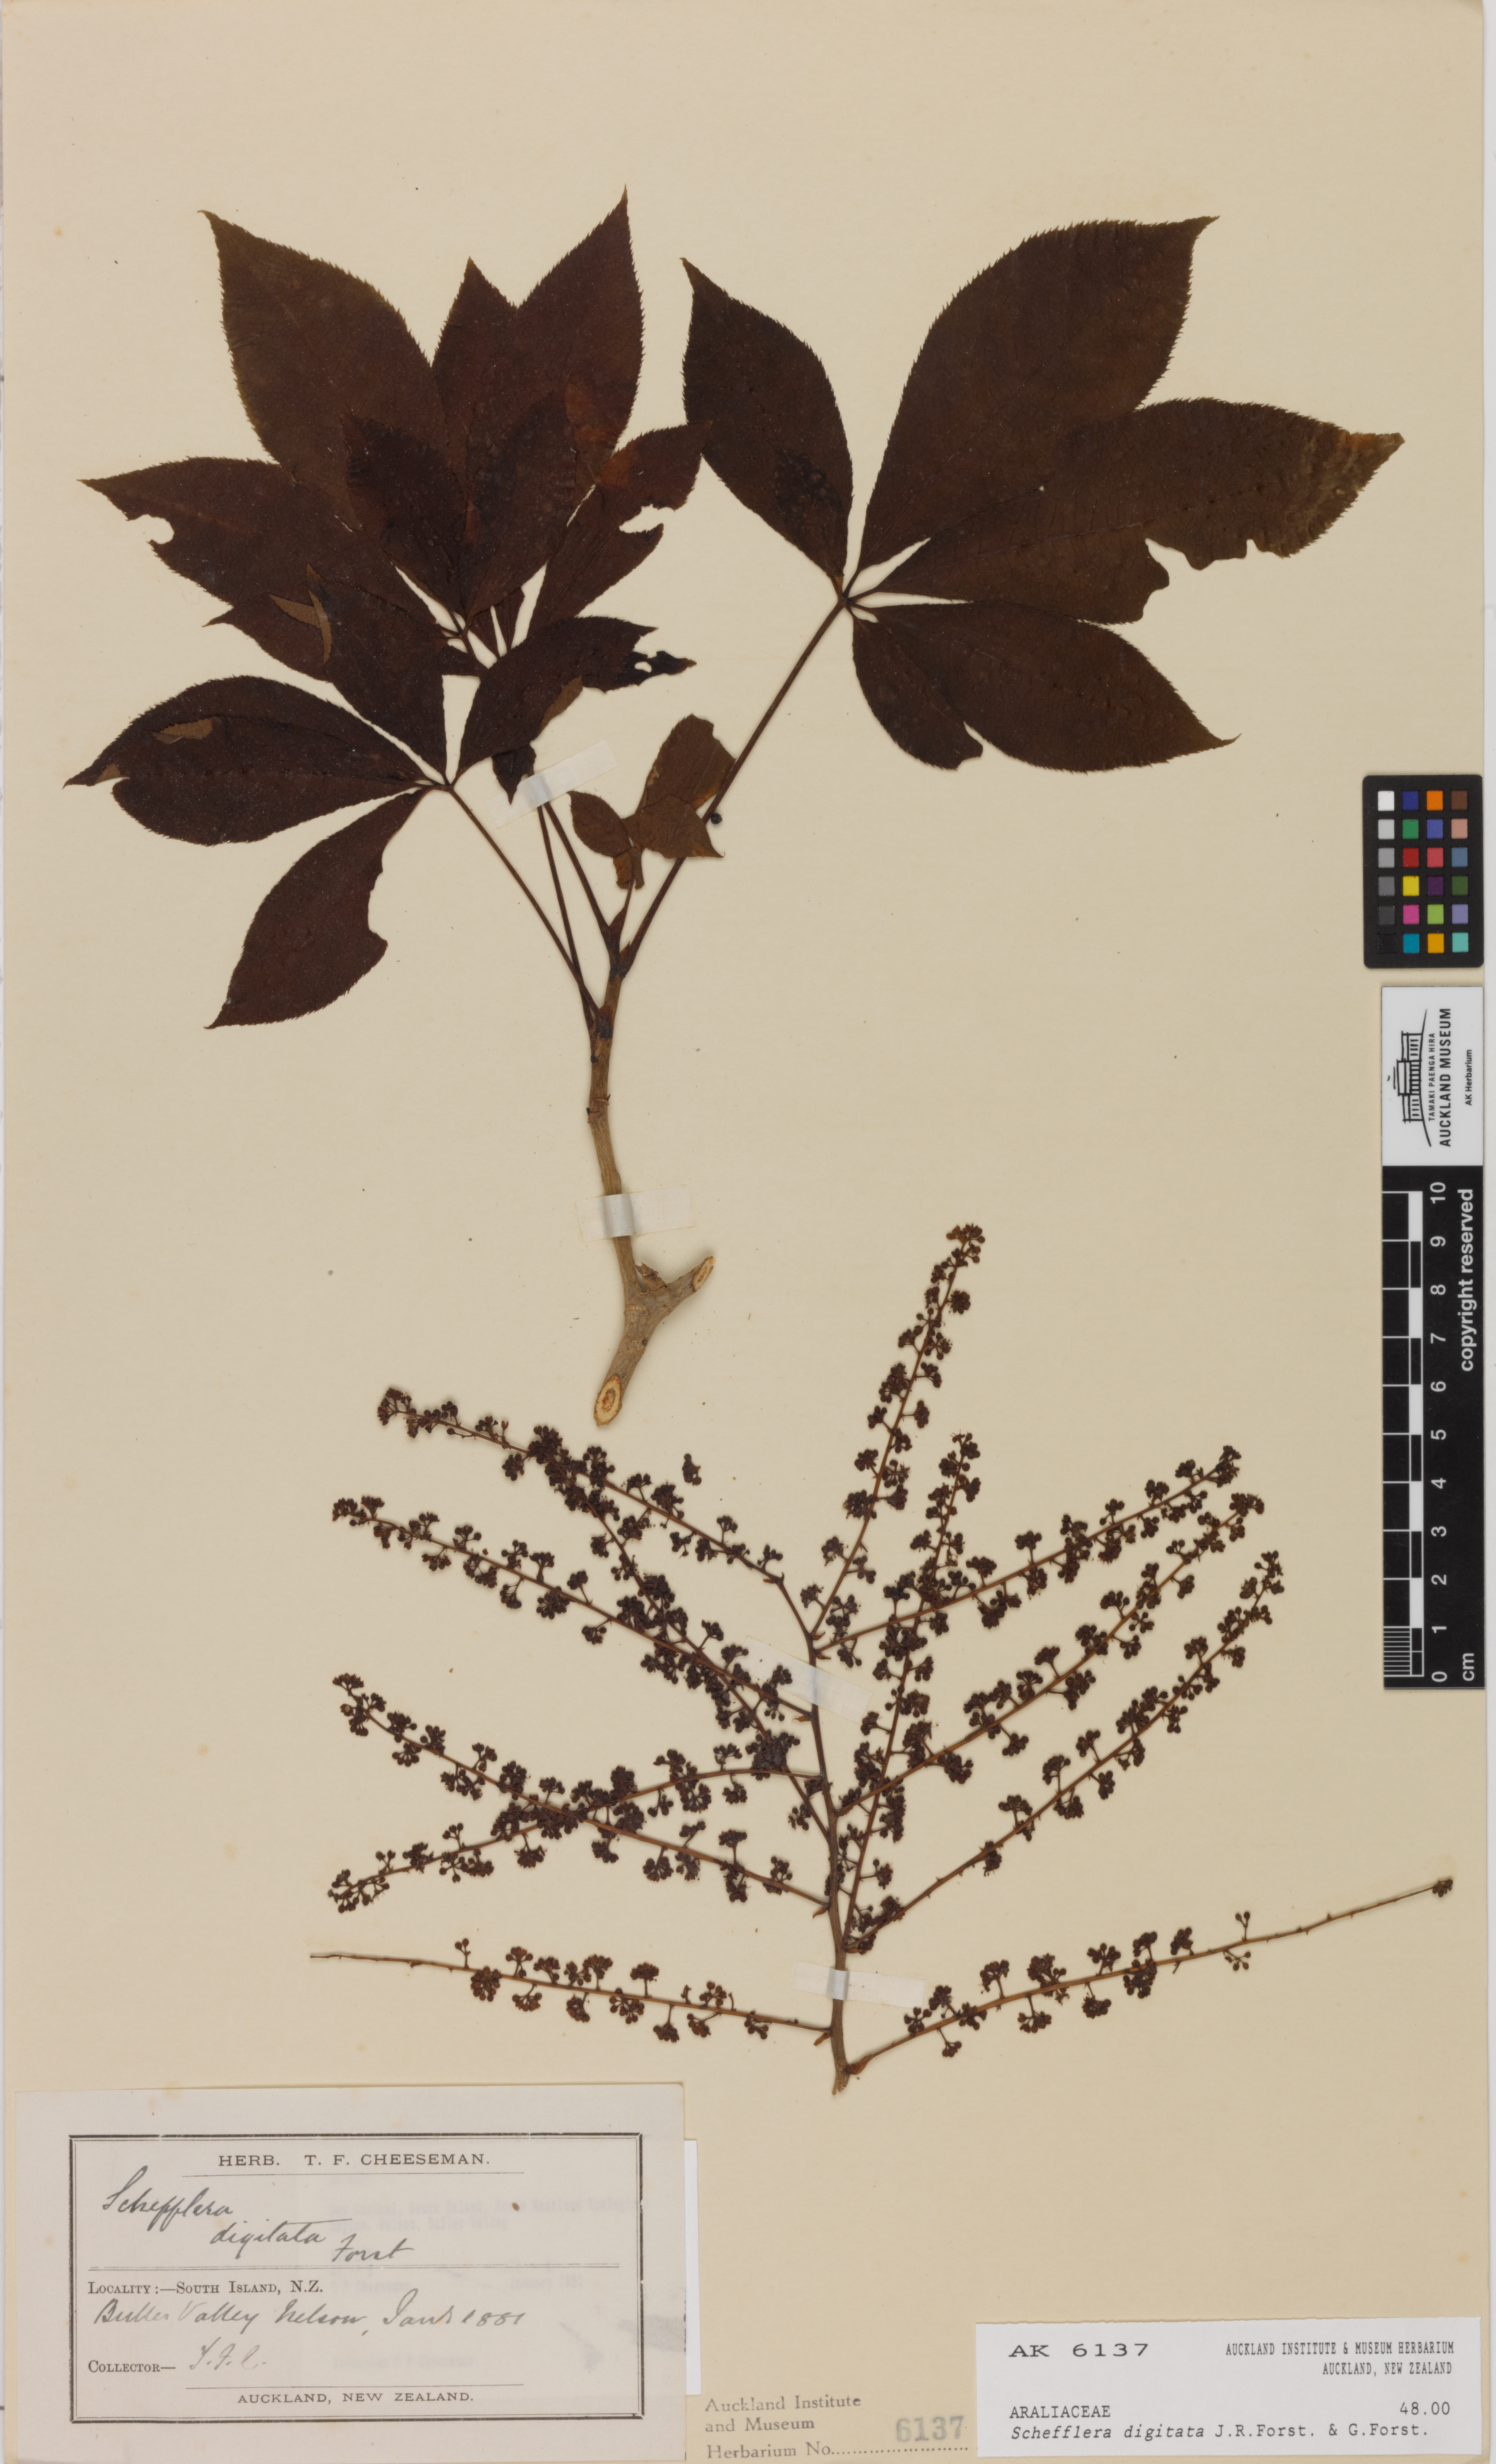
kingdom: Plantae
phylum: Tracheophyta
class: Magnoliopsida
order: Apiales
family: Araliaceae
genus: Schefflera
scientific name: Schefflera digitata
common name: Pate
